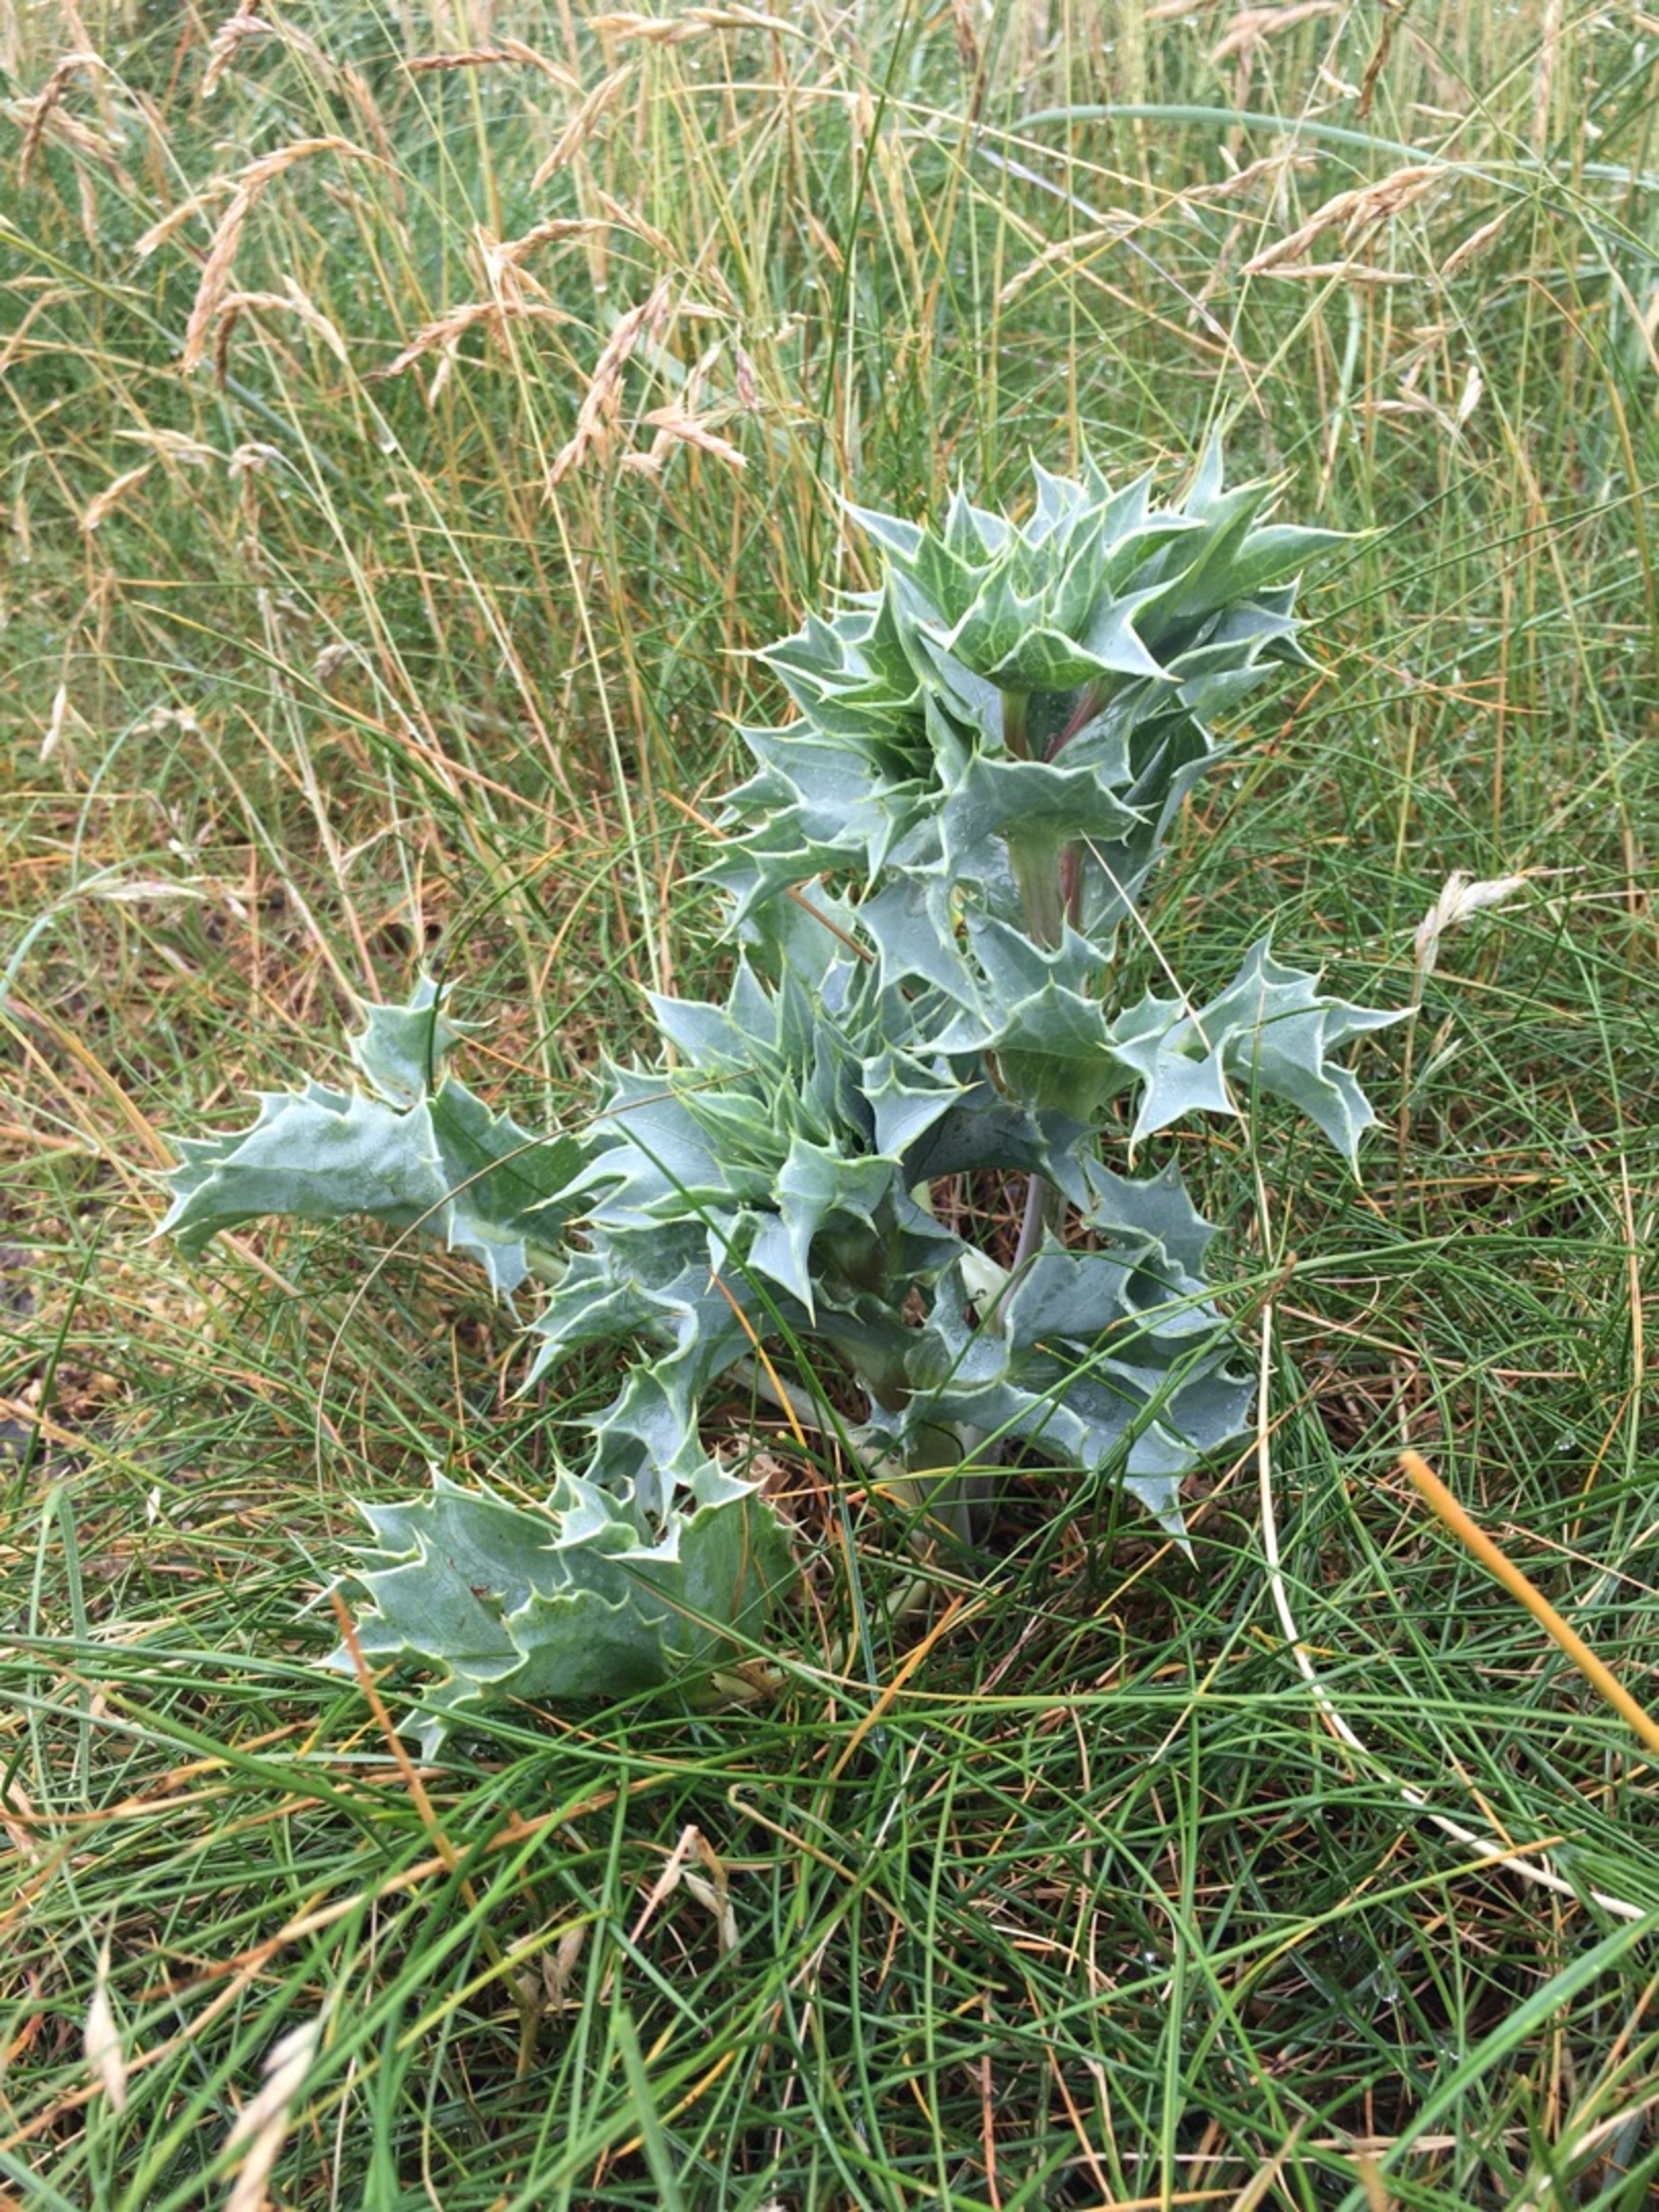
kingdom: Plantae
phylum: Tracheophyta
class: Magnoliopsida
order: Apiales
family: Apiaceae
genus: Eryngium
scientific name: Eryngium maritimum
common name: Strand-mandstro
